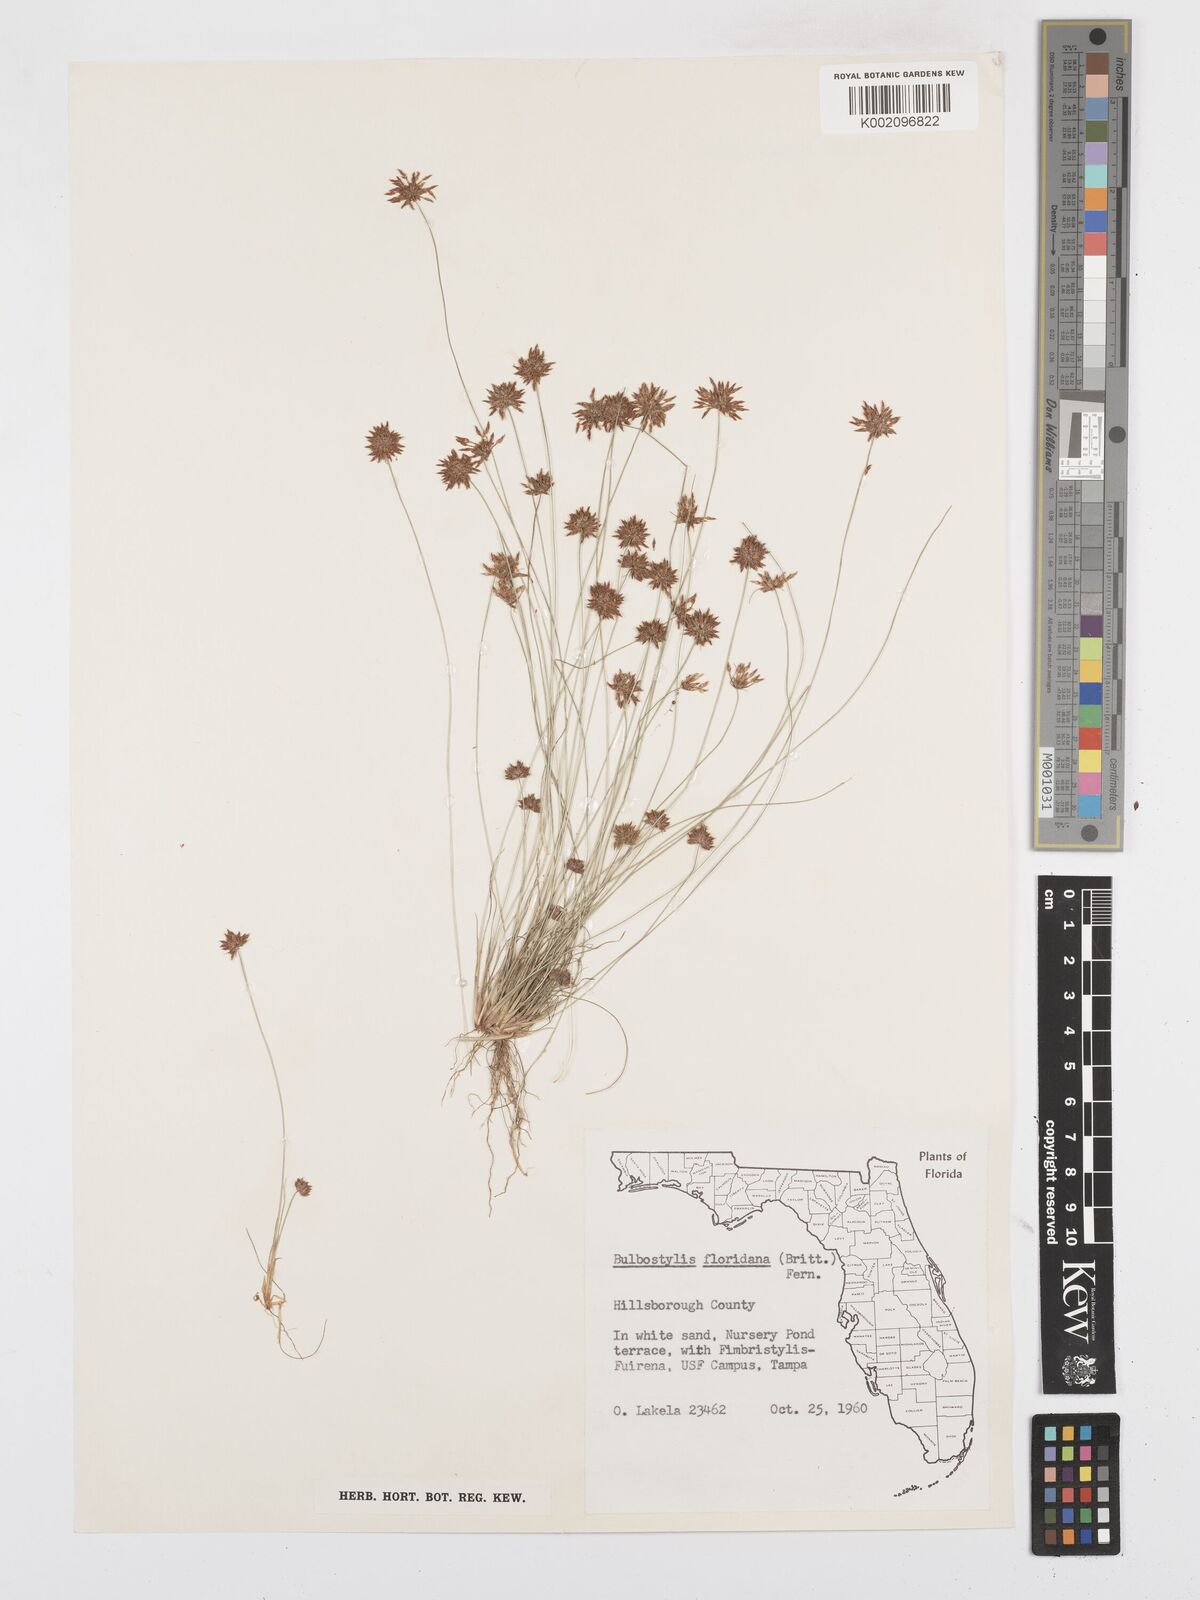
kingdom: Plantae
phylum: Tracheophyta
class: Liliopsida
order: Poales
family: Cyperaceae
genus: Bulbostylis
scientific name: Bulbostylis rarissima
